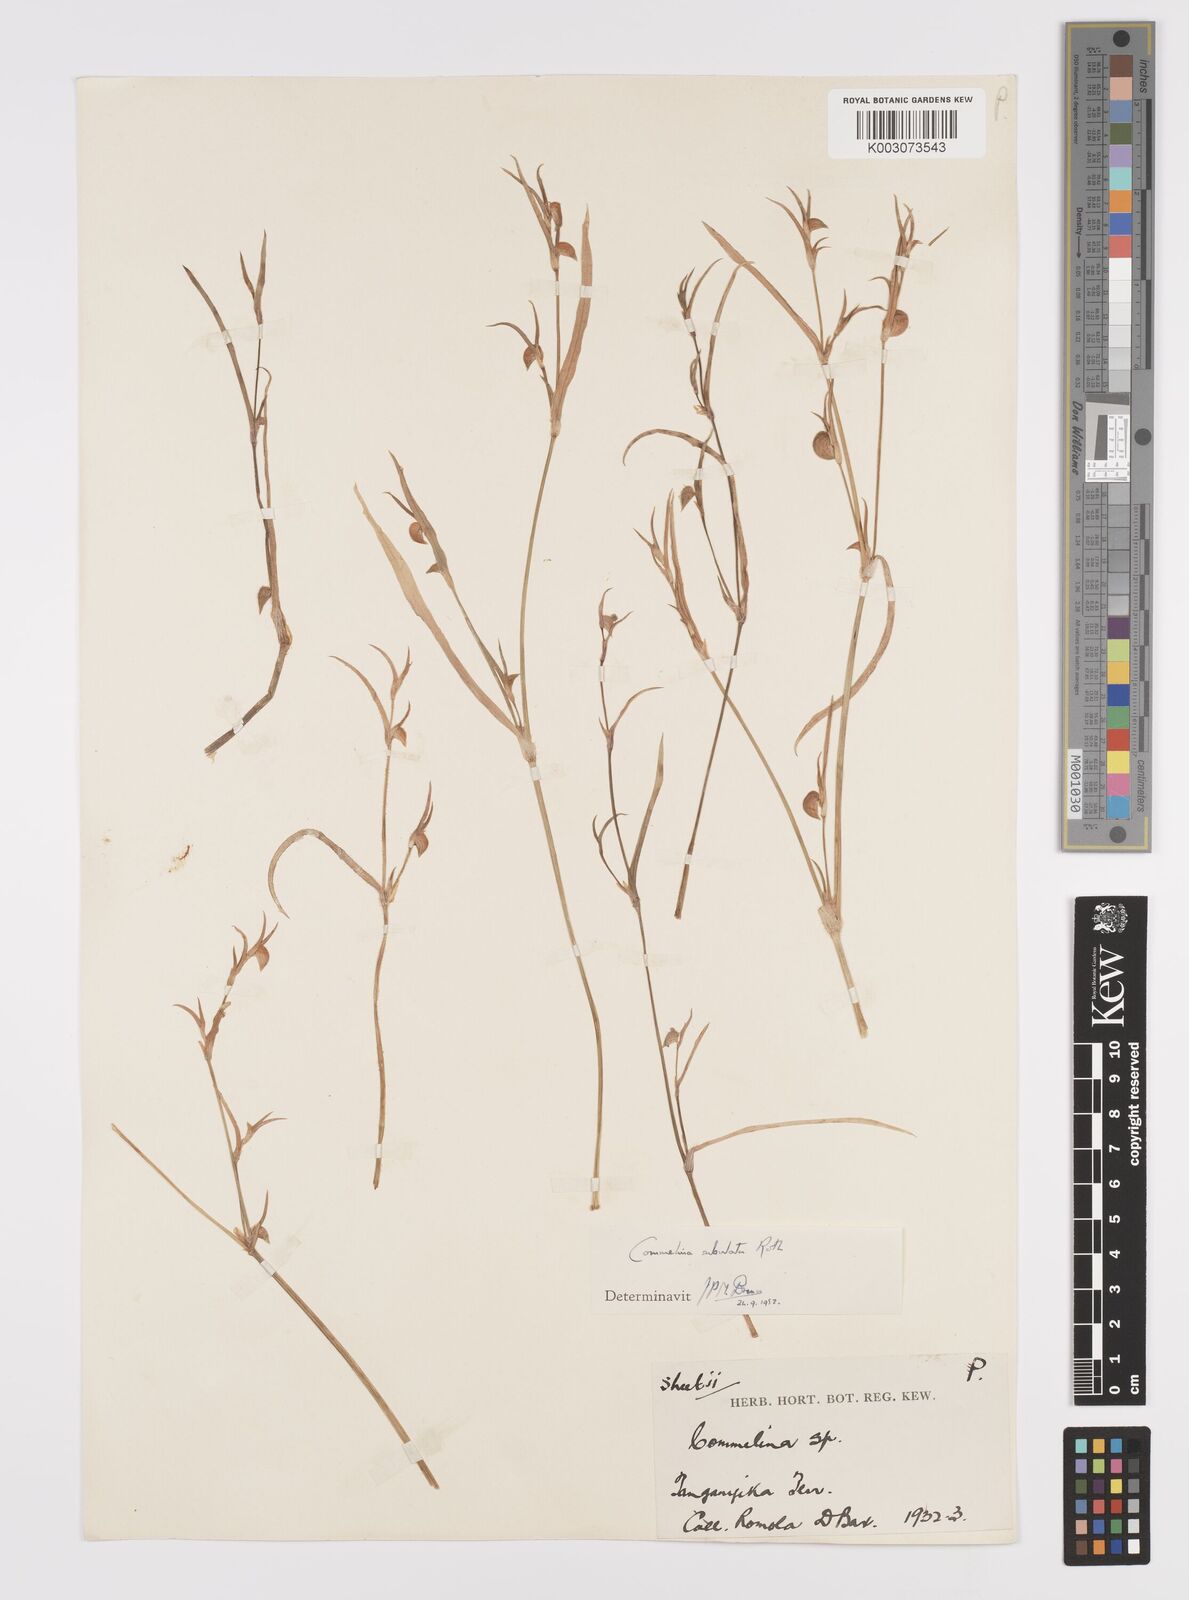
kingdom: Plantae
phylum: Tracheophyta
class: Liliopsida
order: Commelinales
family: Commelinaceae
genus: Commelina
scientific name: Commelina subulata
